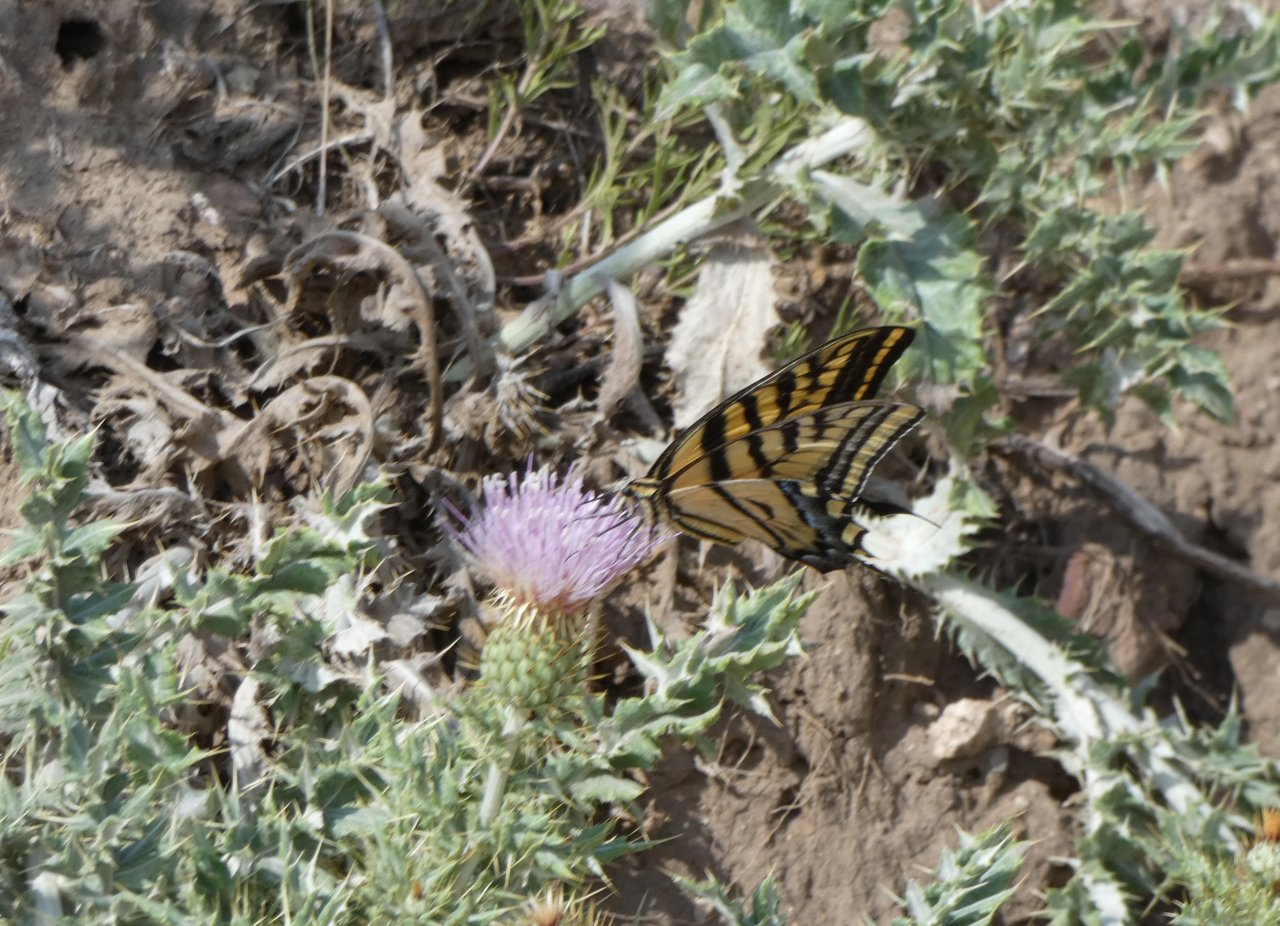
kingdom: Animalia
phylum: Arthropoda
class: Insecta
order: Lepidoptera
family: Papilionidae
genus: Papilio
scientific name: Papilio multicaudata
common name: Two-tailed Swallowtail
